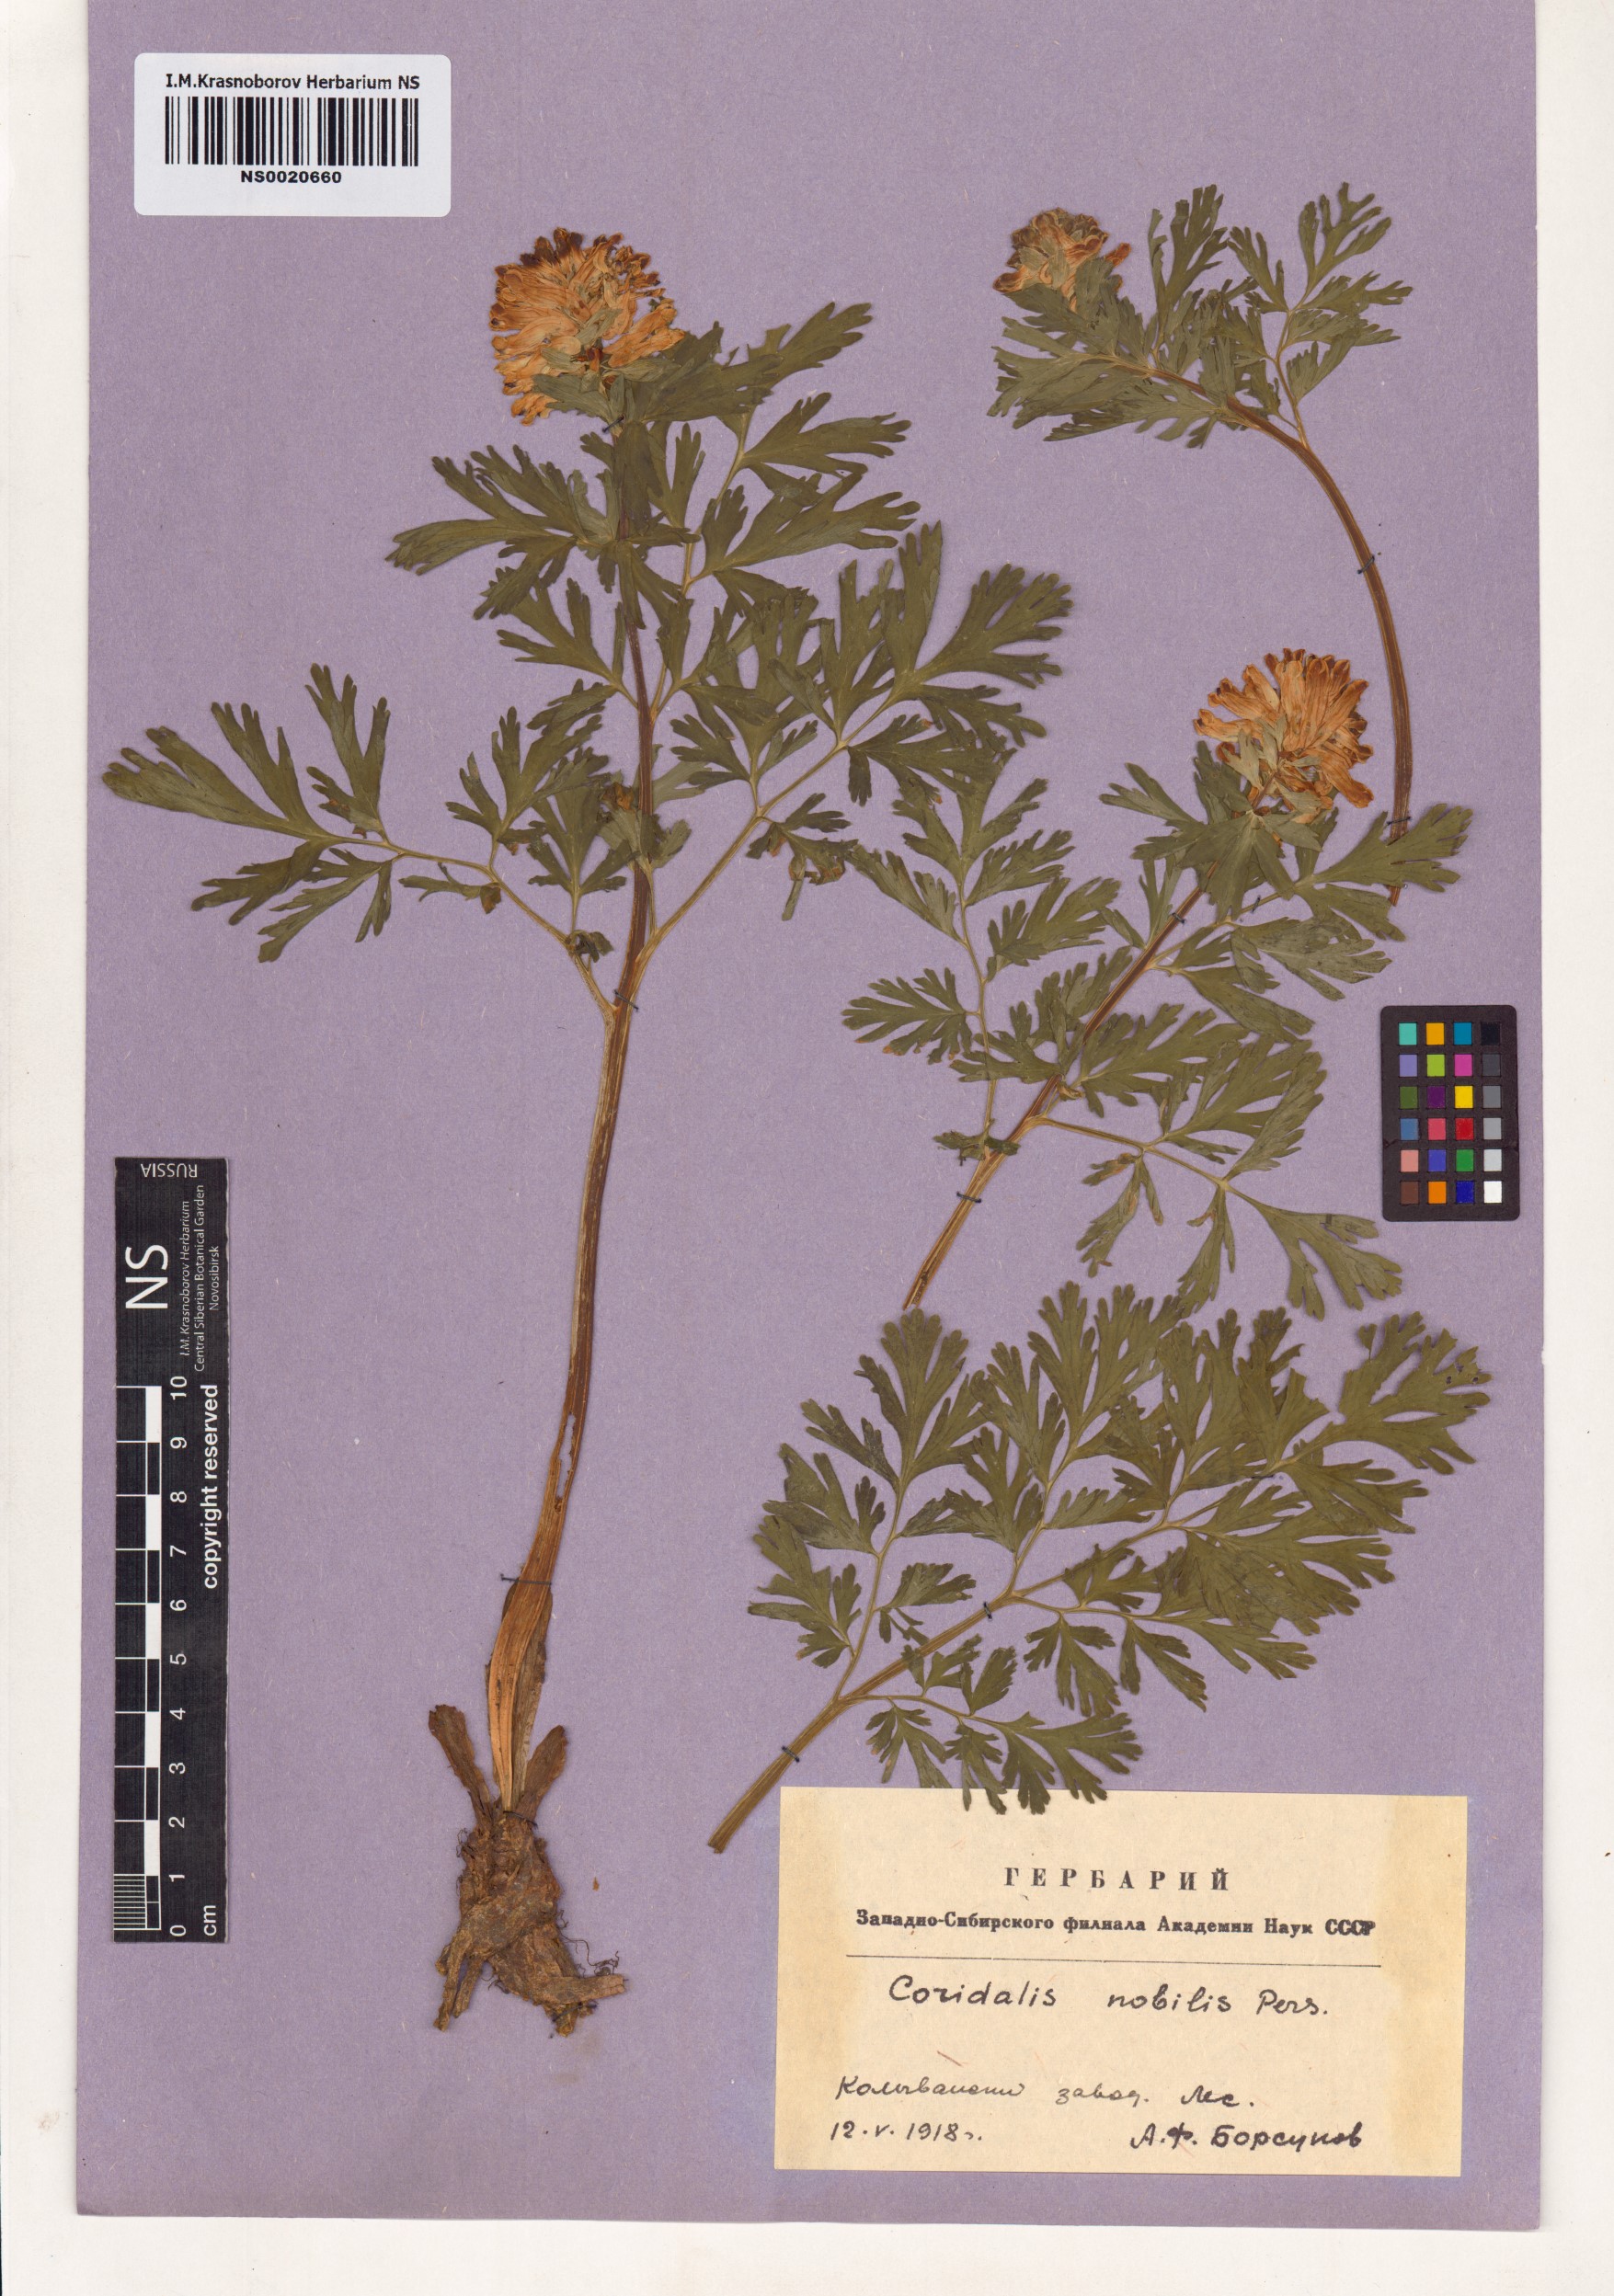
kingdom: Plantae
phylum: Tracheophyta
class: Magnoliopsida
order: Ranunculales
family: Papaveraceae
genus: Corydalis
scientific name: Corydalis nobilis
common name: Siberian corydalis
